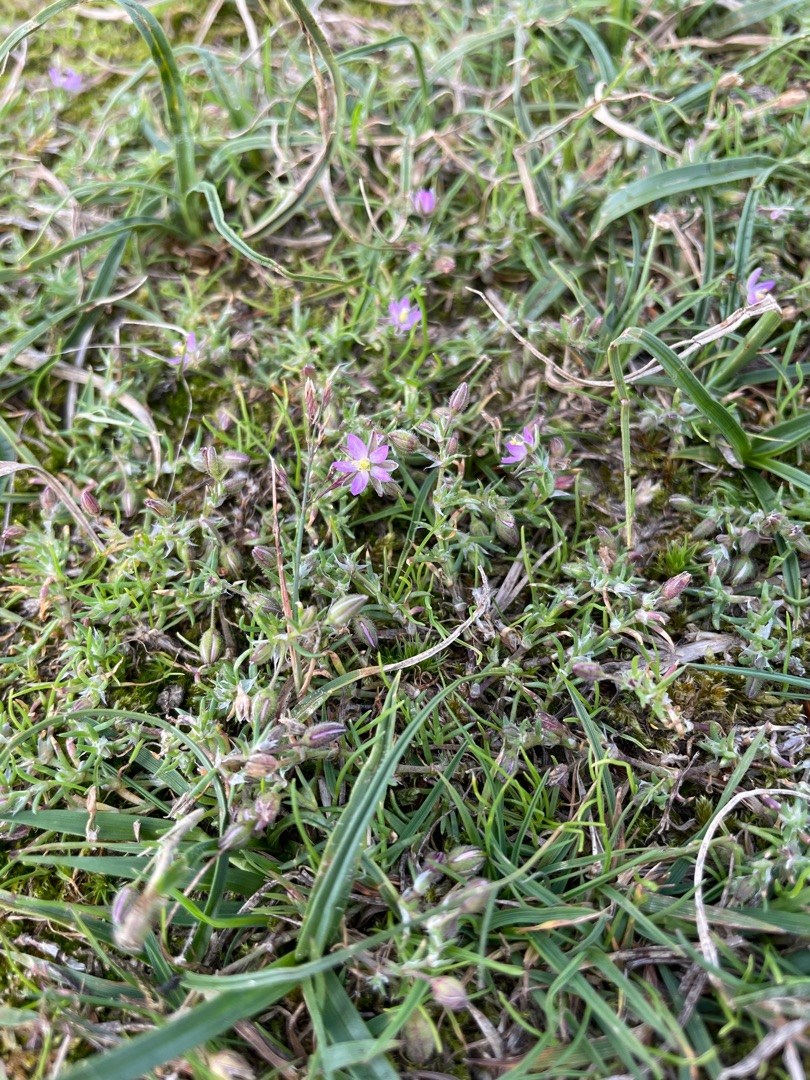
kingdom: Plantae
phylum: Tracheophyta
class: Magnoliopsida
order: Caryophyllales
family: Caryophyllaceae
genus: Spergularia
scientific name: Spergularia rubra
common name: Mark-hindeknæ
